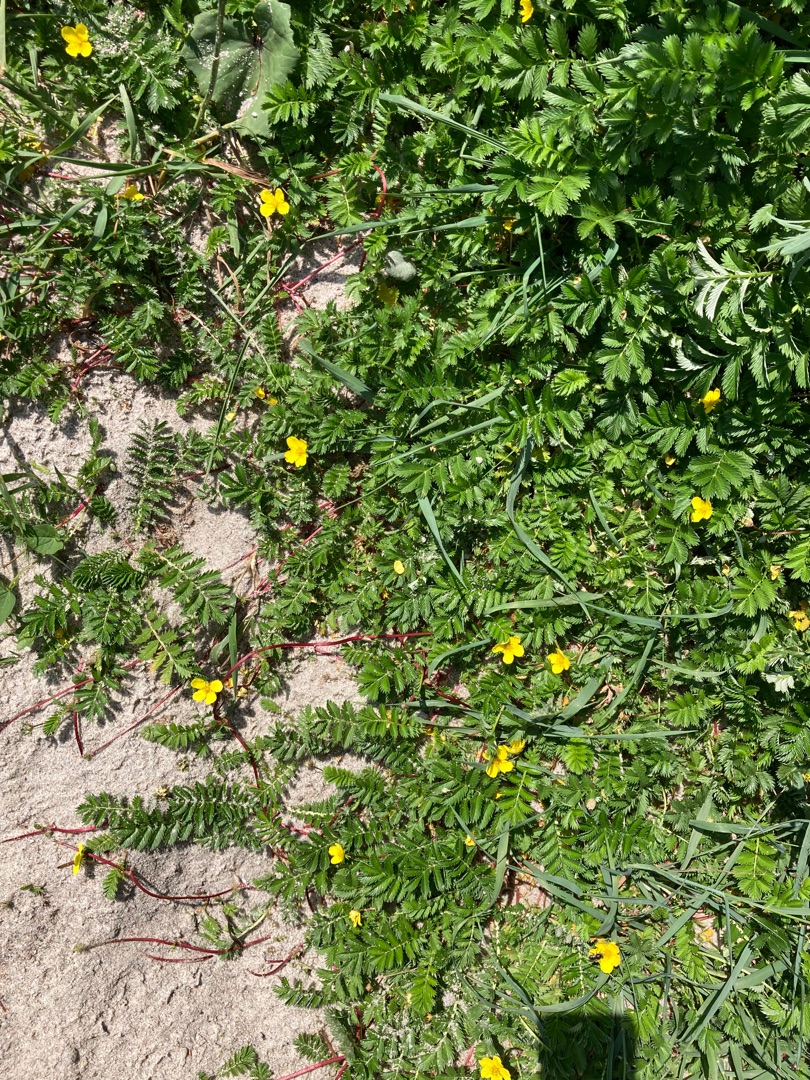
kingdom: Plantae
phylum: Tracheophyta
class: Magnoliopsida
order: Rosales
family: Rosaceae
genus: Argentina
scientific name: Argentina anserina
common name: Gåsepotentil
